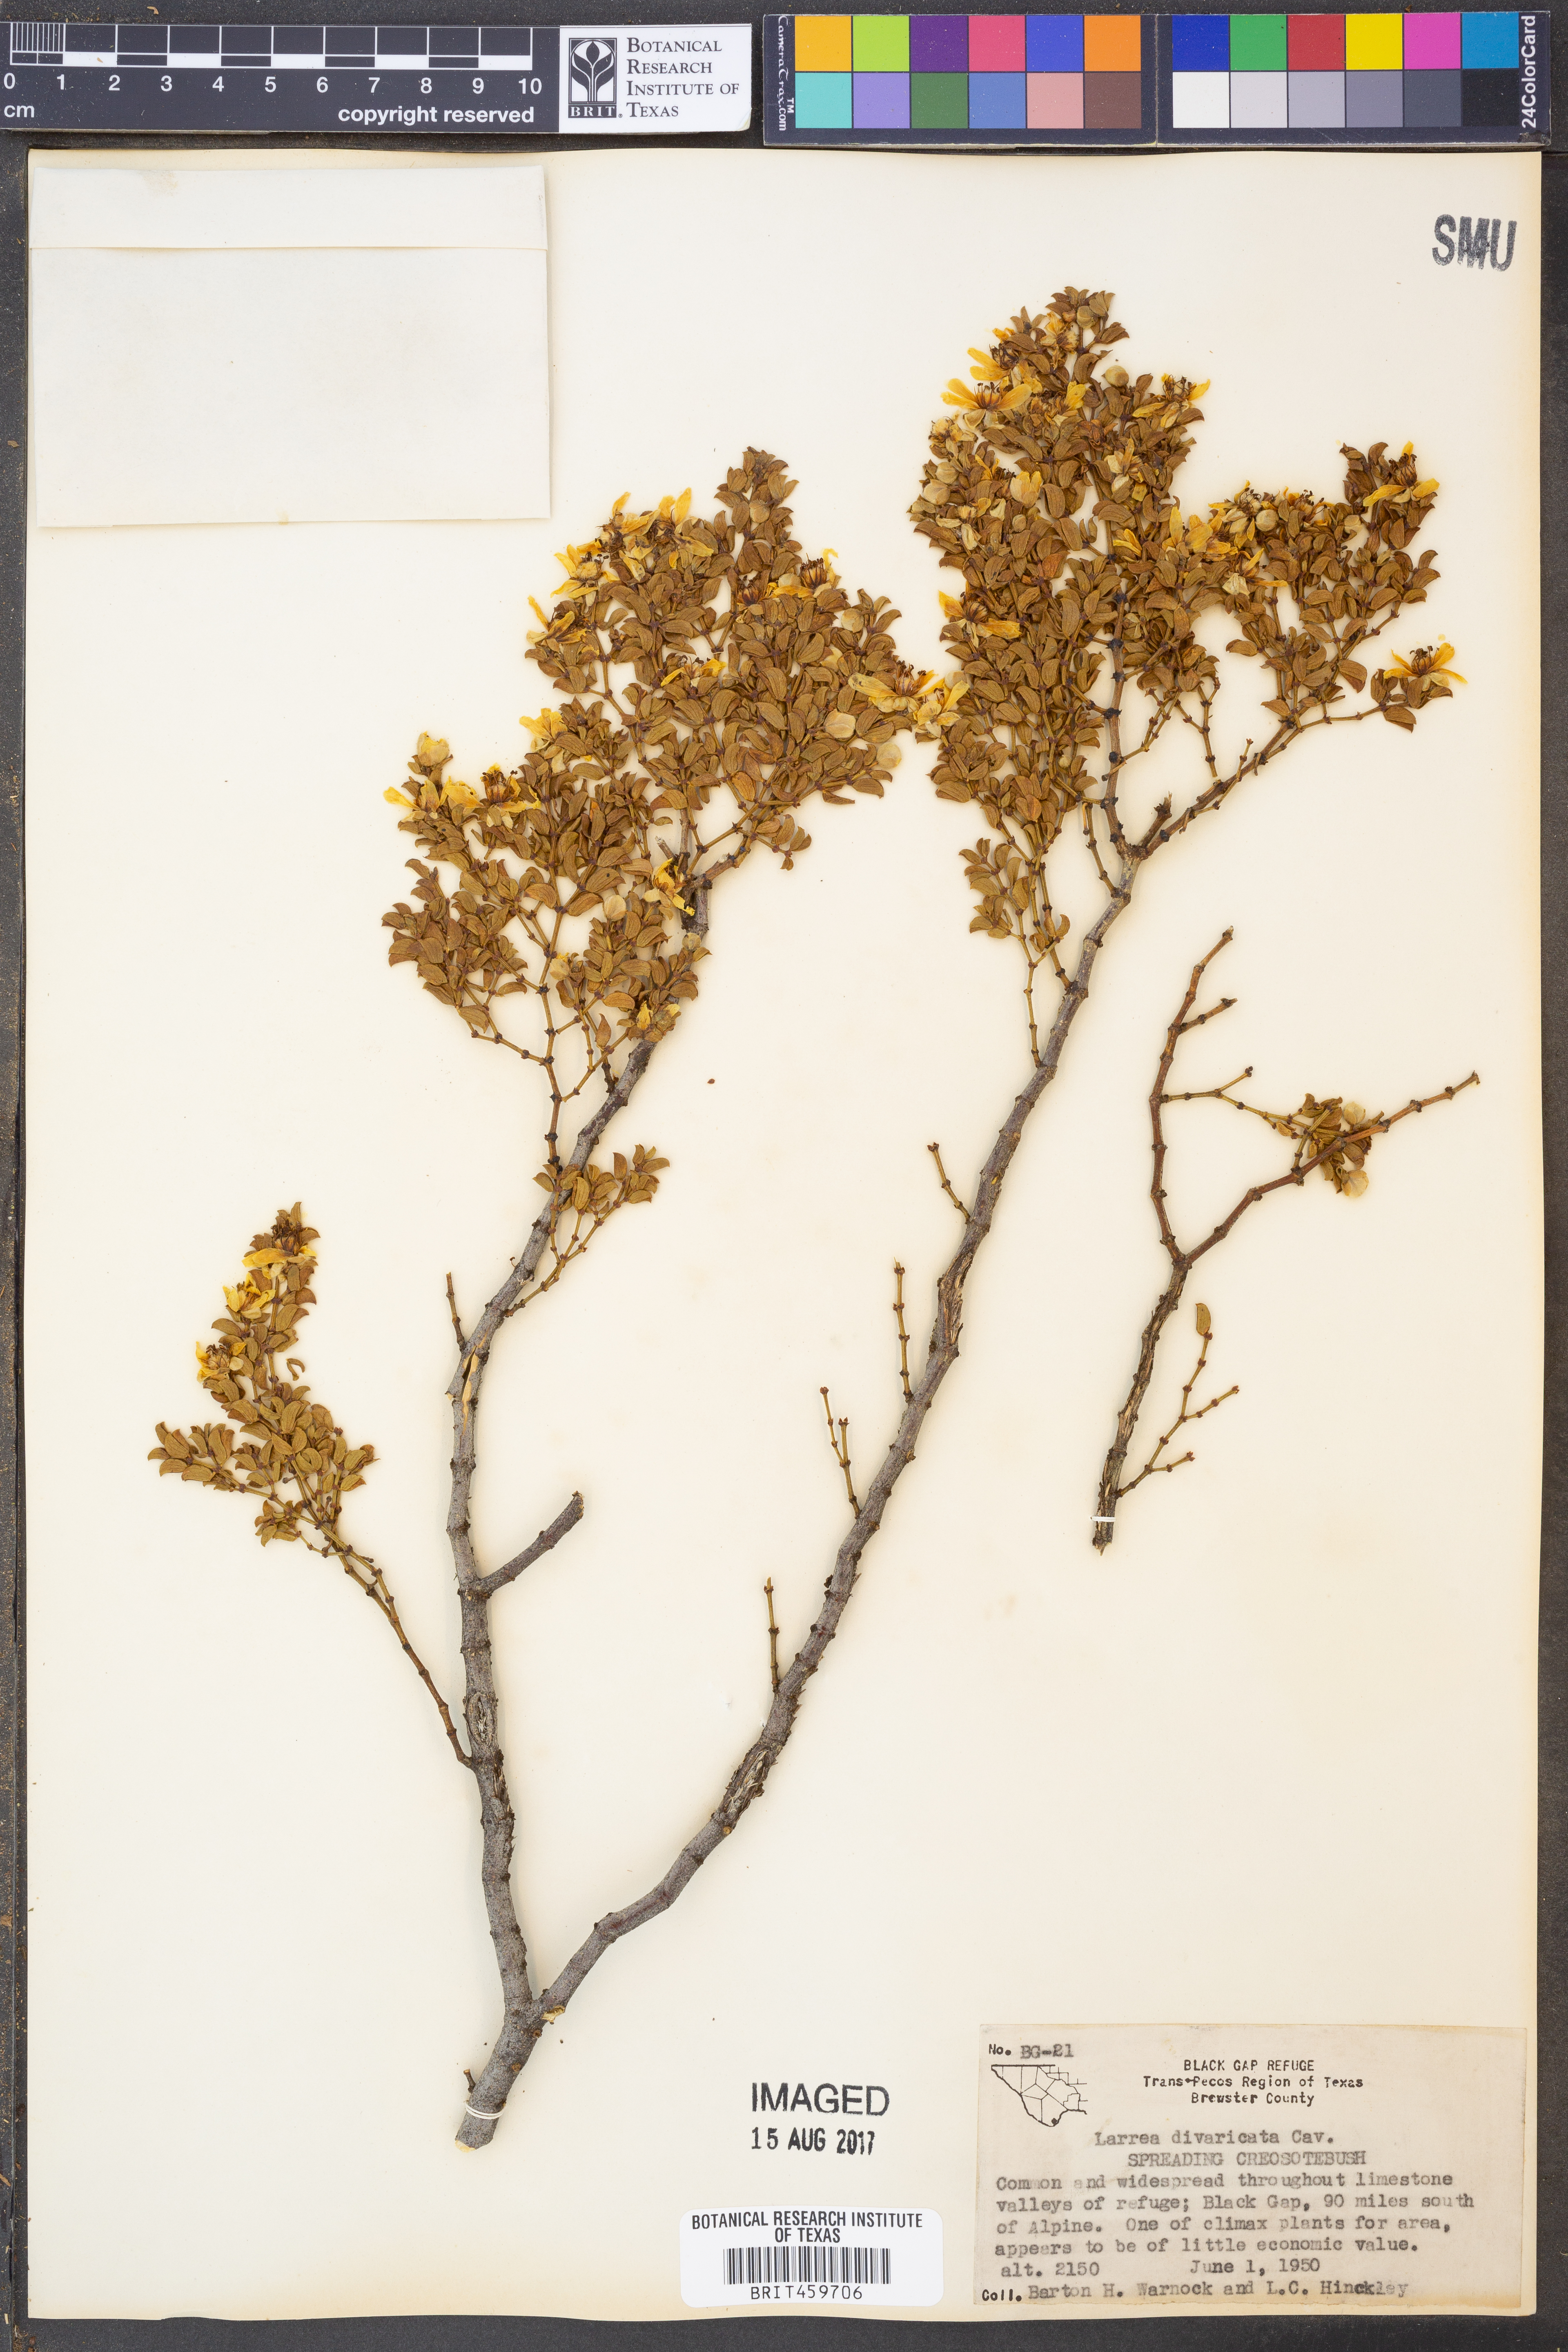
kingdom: Plantae
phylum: Tracheophyta
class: Magnoliopsida
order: Zygophyllales
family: Zygophyllaceae
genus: Larrea
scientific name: Larrea divaricata
